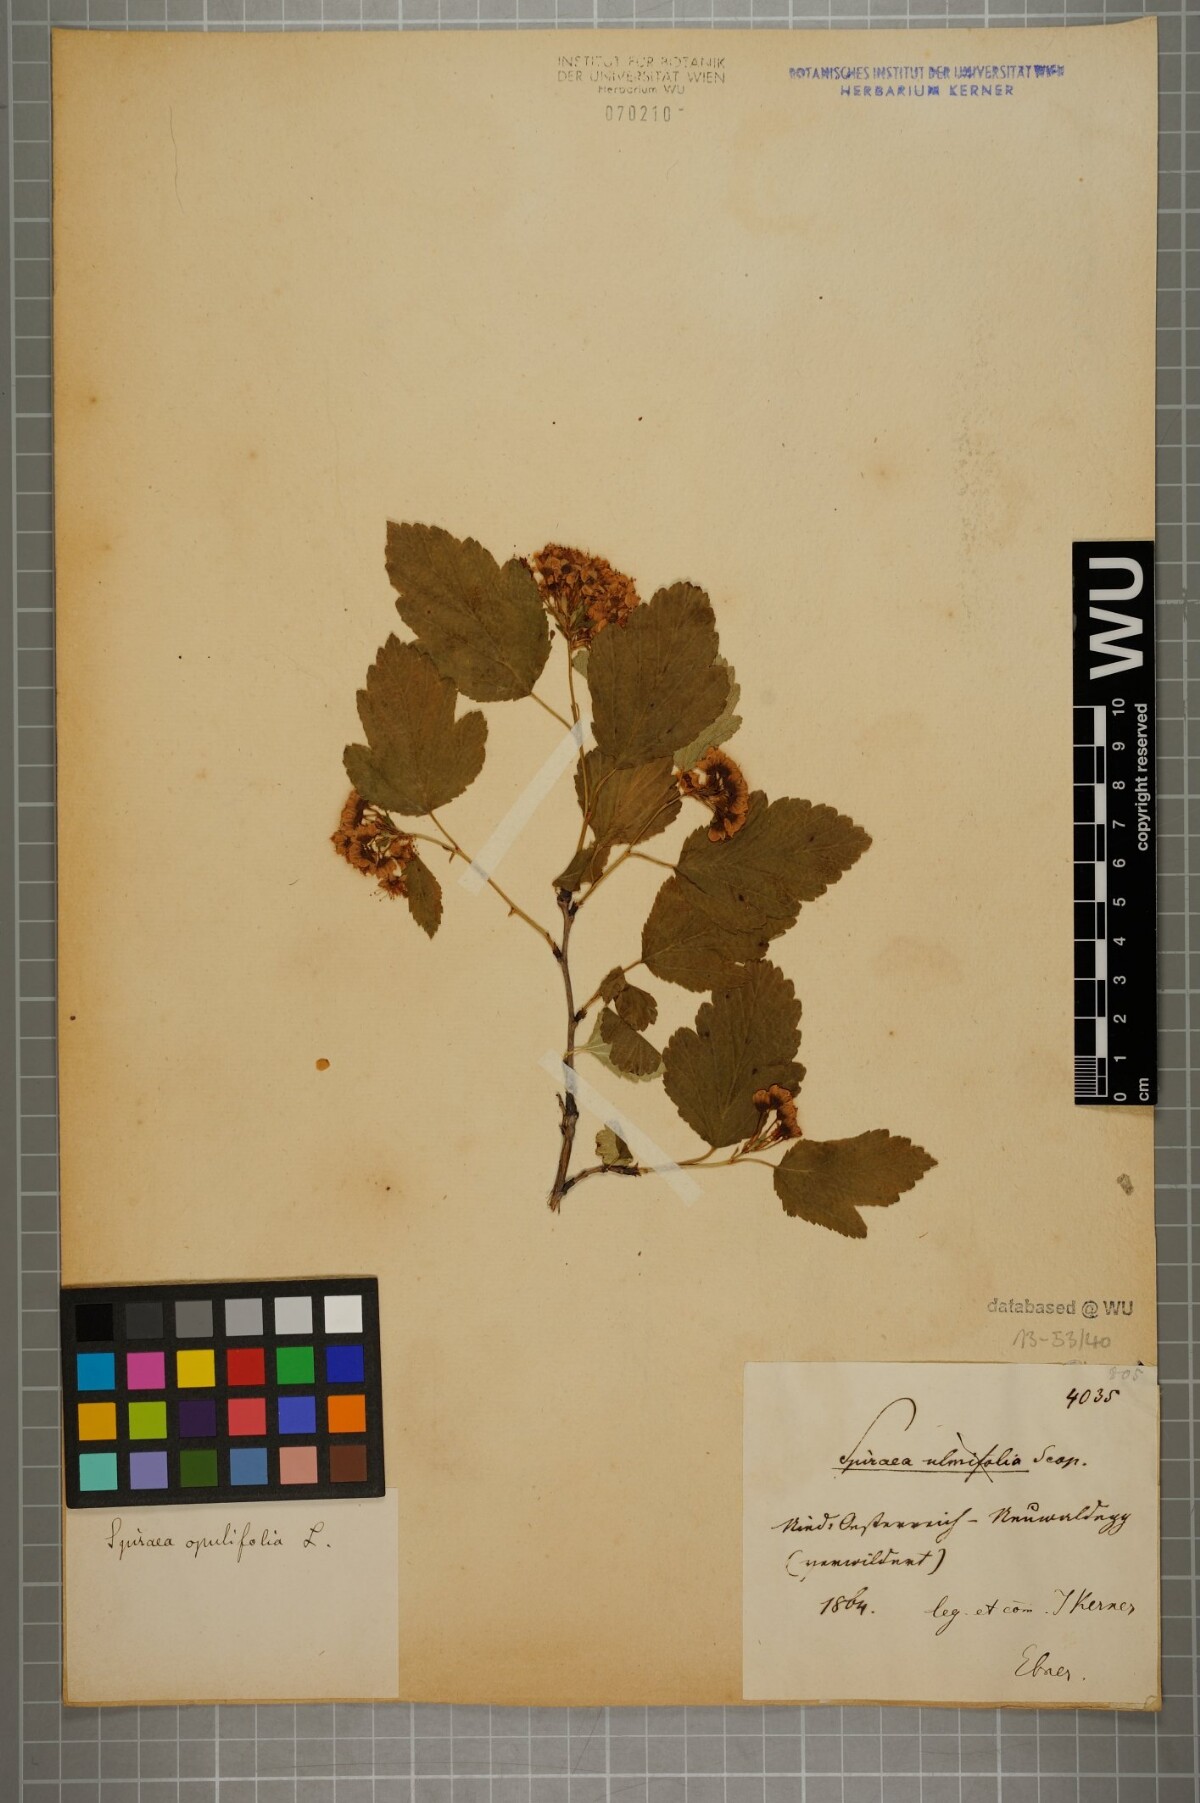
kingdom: Plantae
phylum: Tracheophyta
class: Magnoliopsida
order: Rosales
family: Rosaceae
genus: Physocarpus
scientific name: Physocarpus opulifolius
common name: Ninebark
